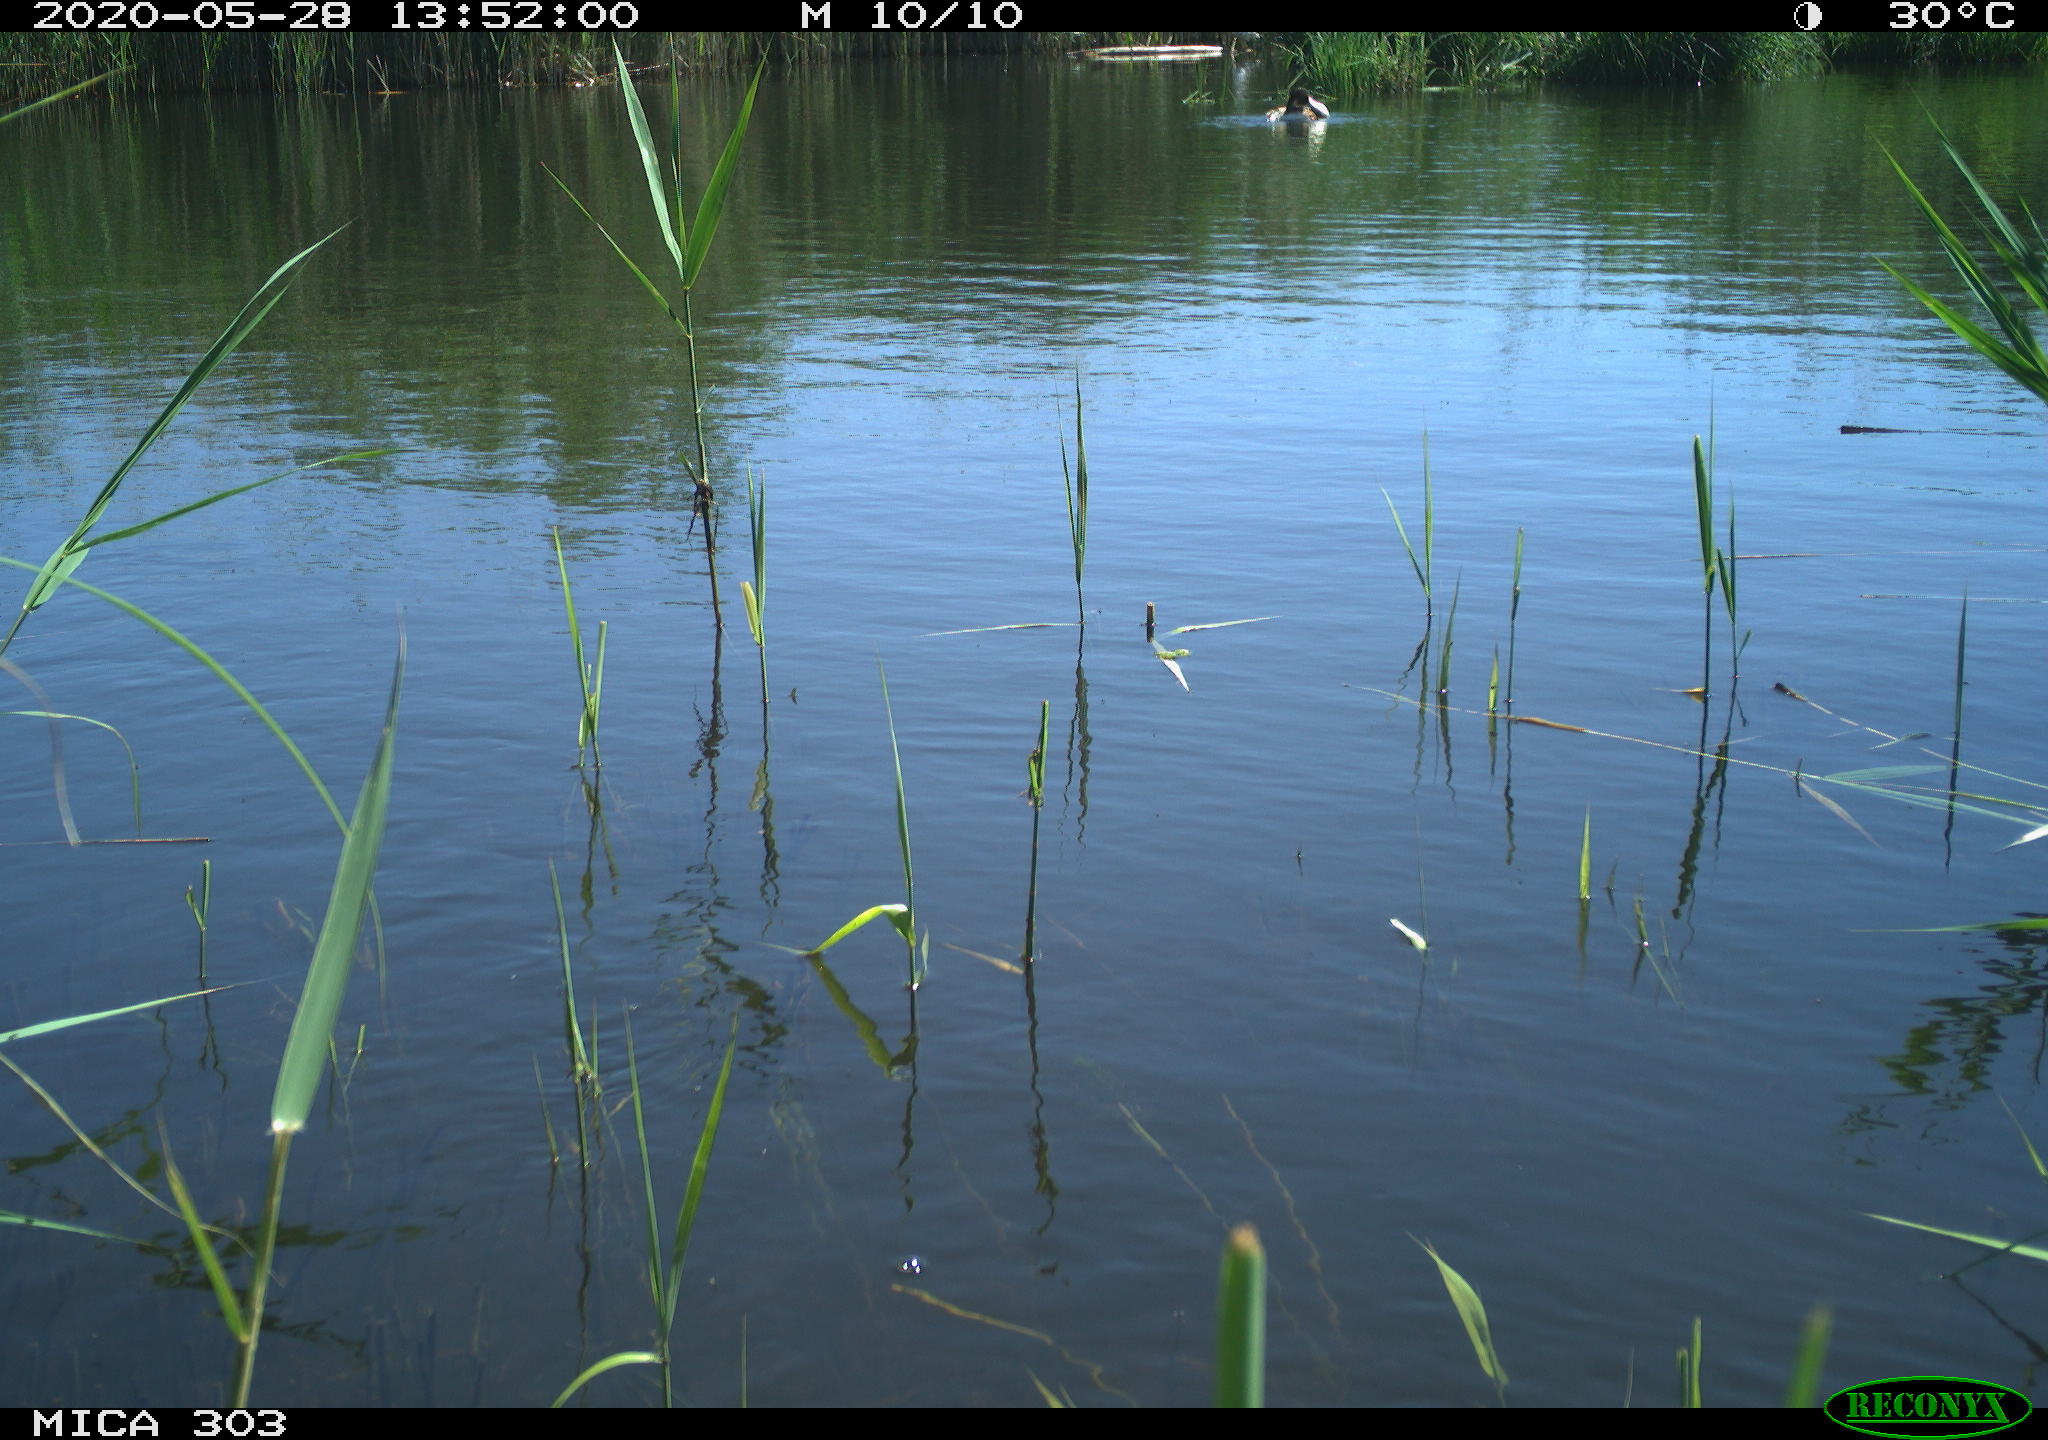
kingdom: Animalia
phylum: Chordata
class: Aves
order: Podicipediformes
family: Podicipedidae
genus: Podiceps
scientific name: Podiceps cristatus
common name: Great crested grebe
